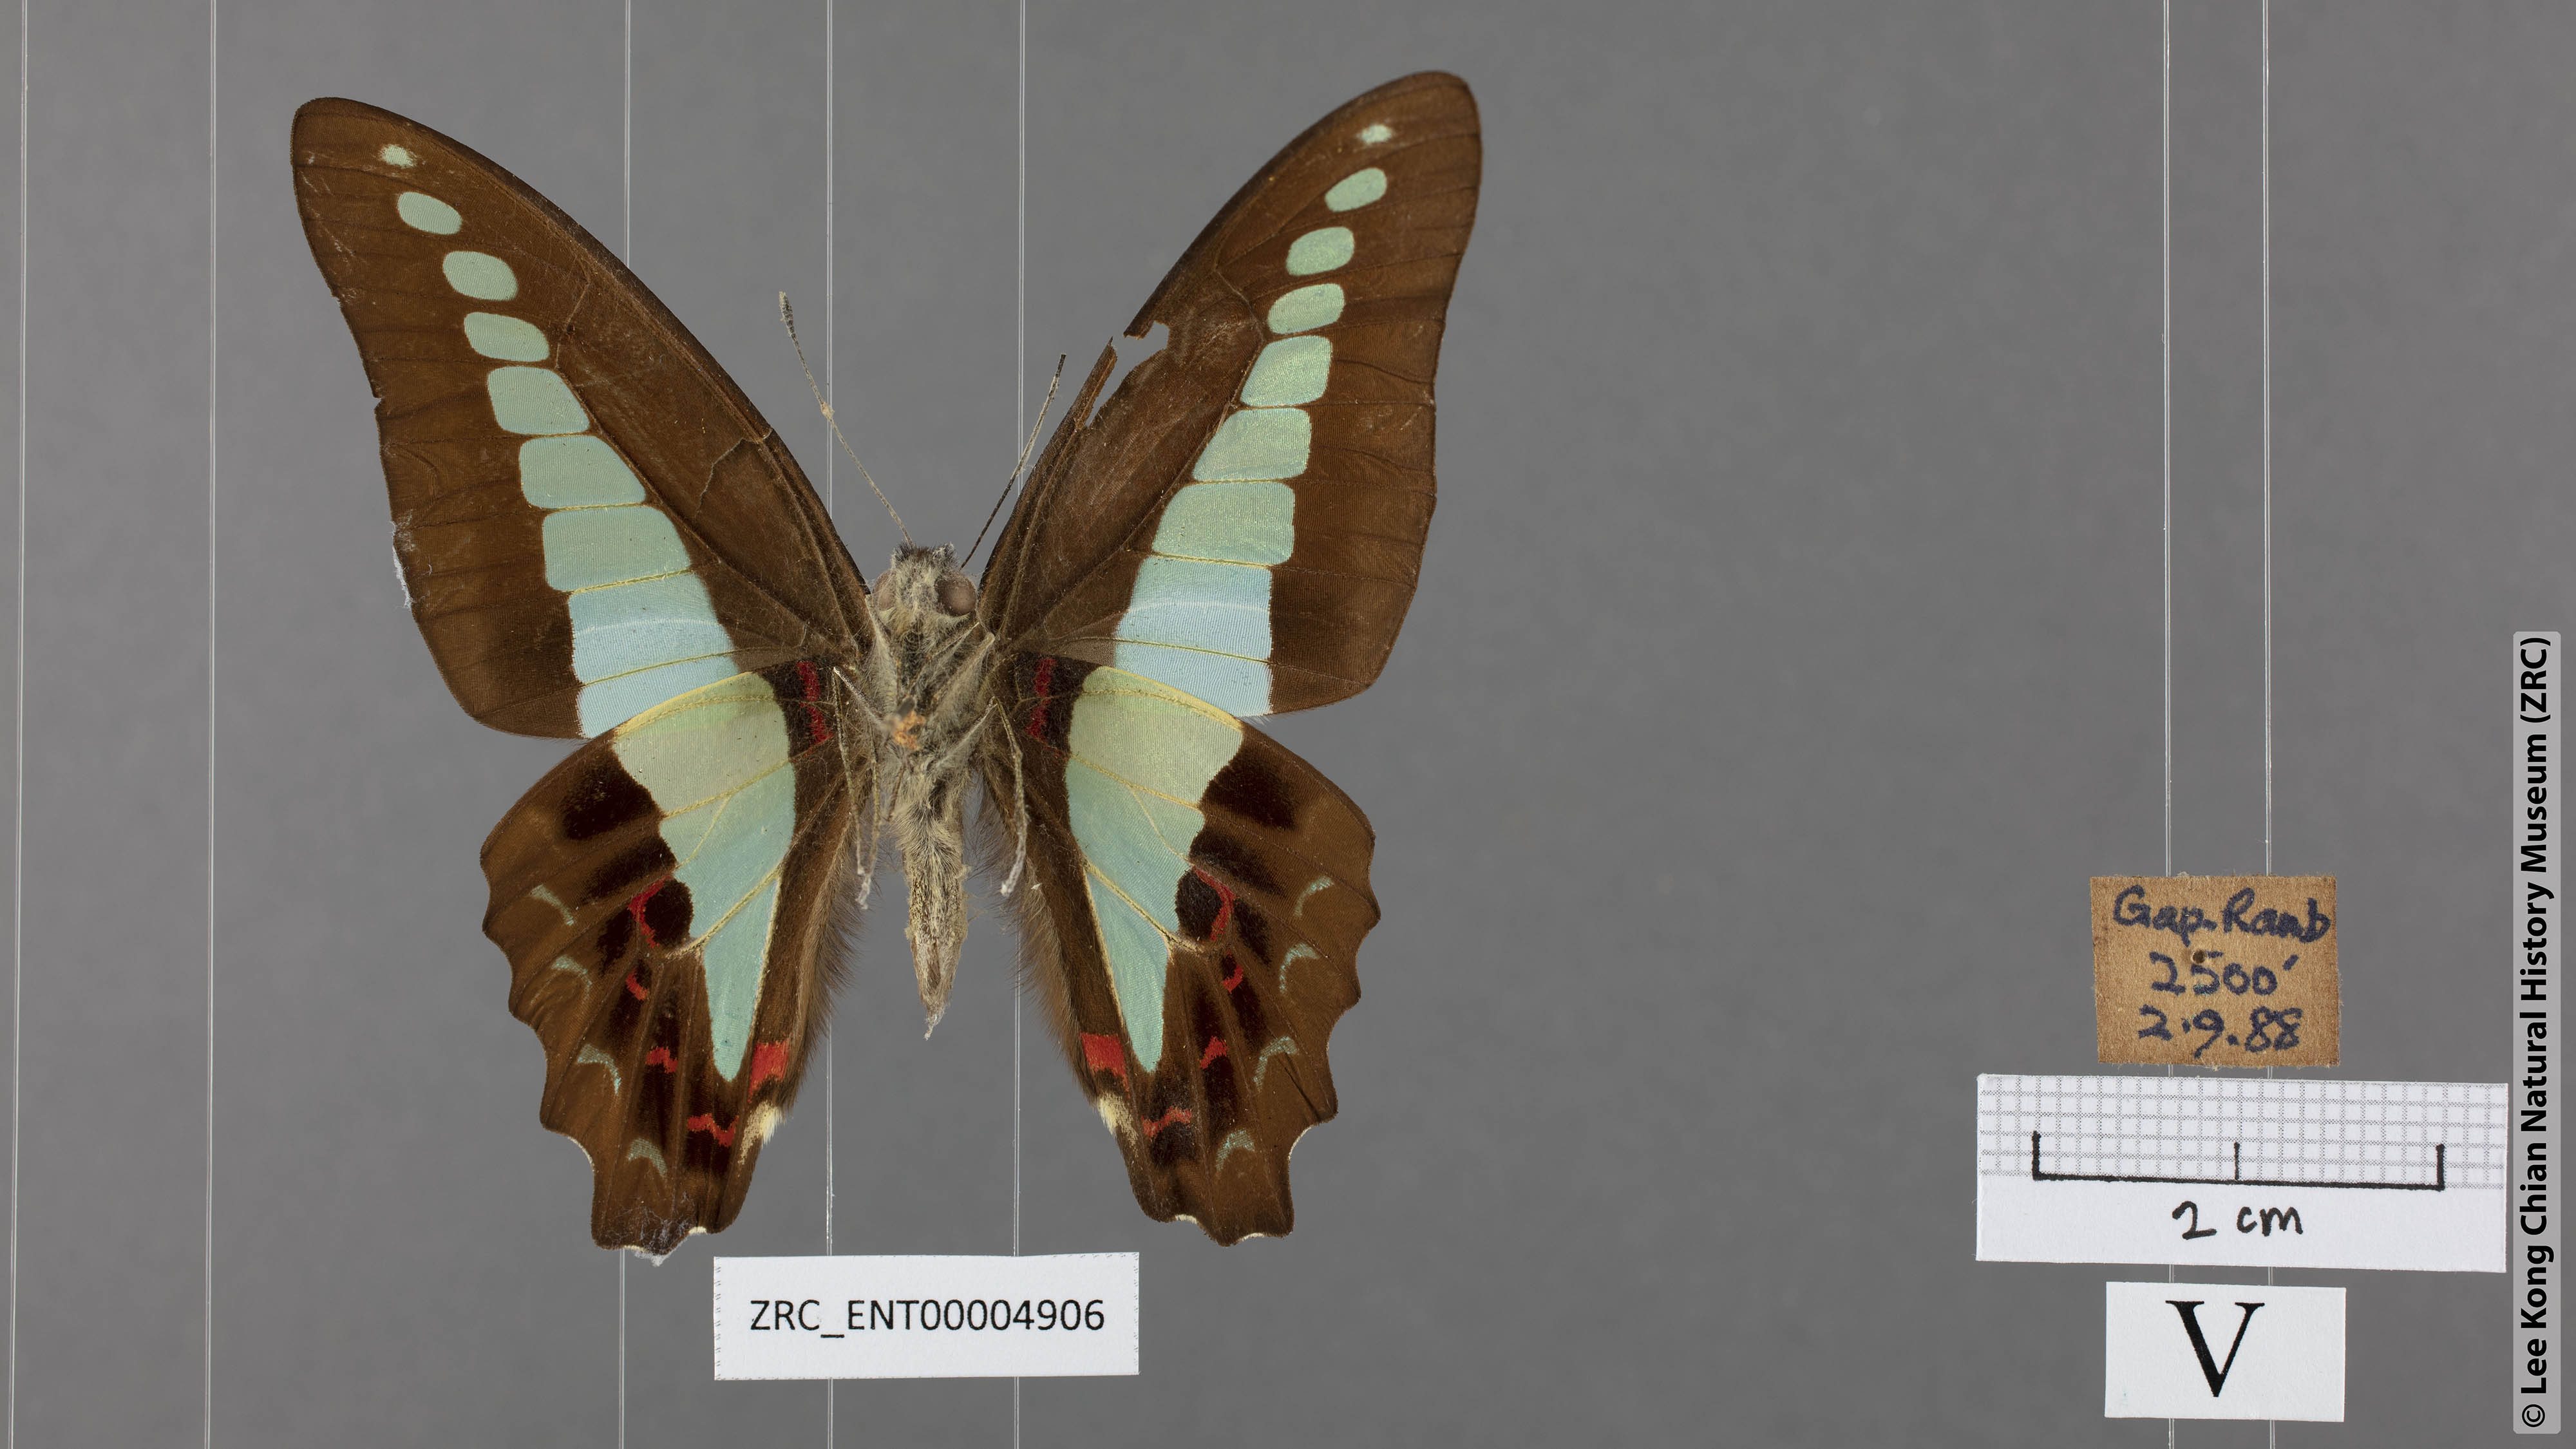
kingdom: Fungi
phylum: Ascomycota
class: Sordariomycetes
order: Microascales
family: Microascaceae
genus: Graphium
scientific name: Graphium sarpedon
